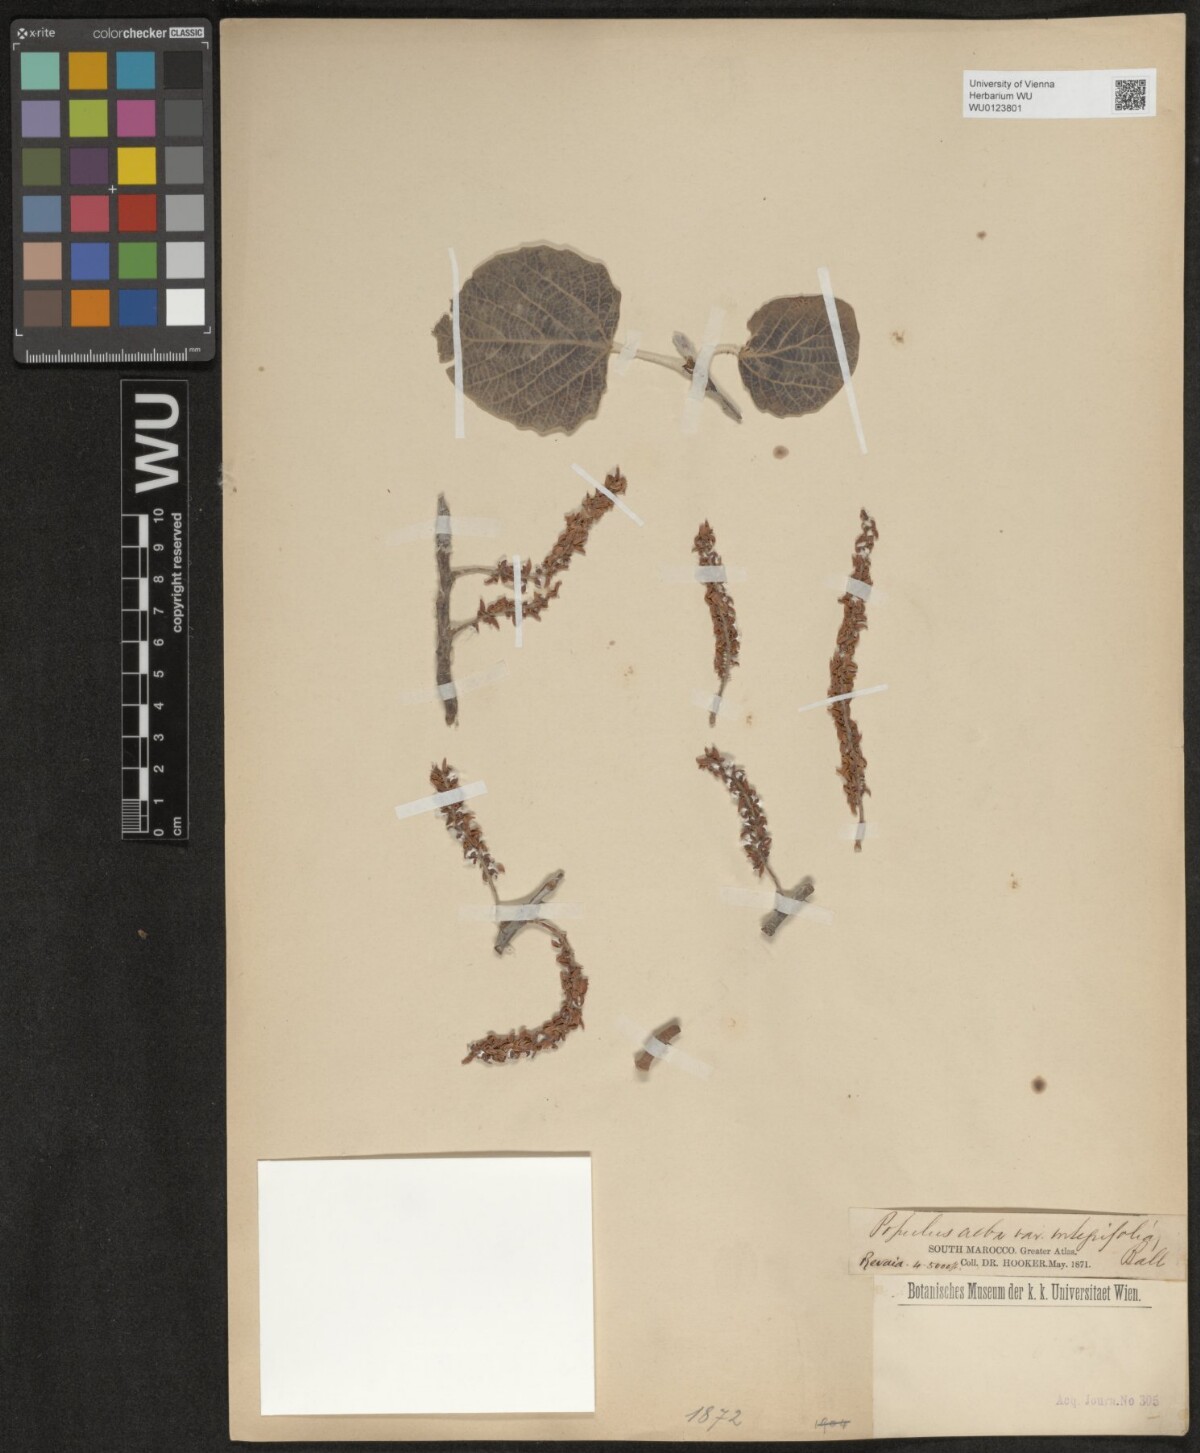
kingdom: Plantae
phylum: Tracheophyta
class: Magnoliopsida
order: Malpighiales
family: Salicaceae
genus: Populus
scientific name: Populus alba
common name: White poplar
